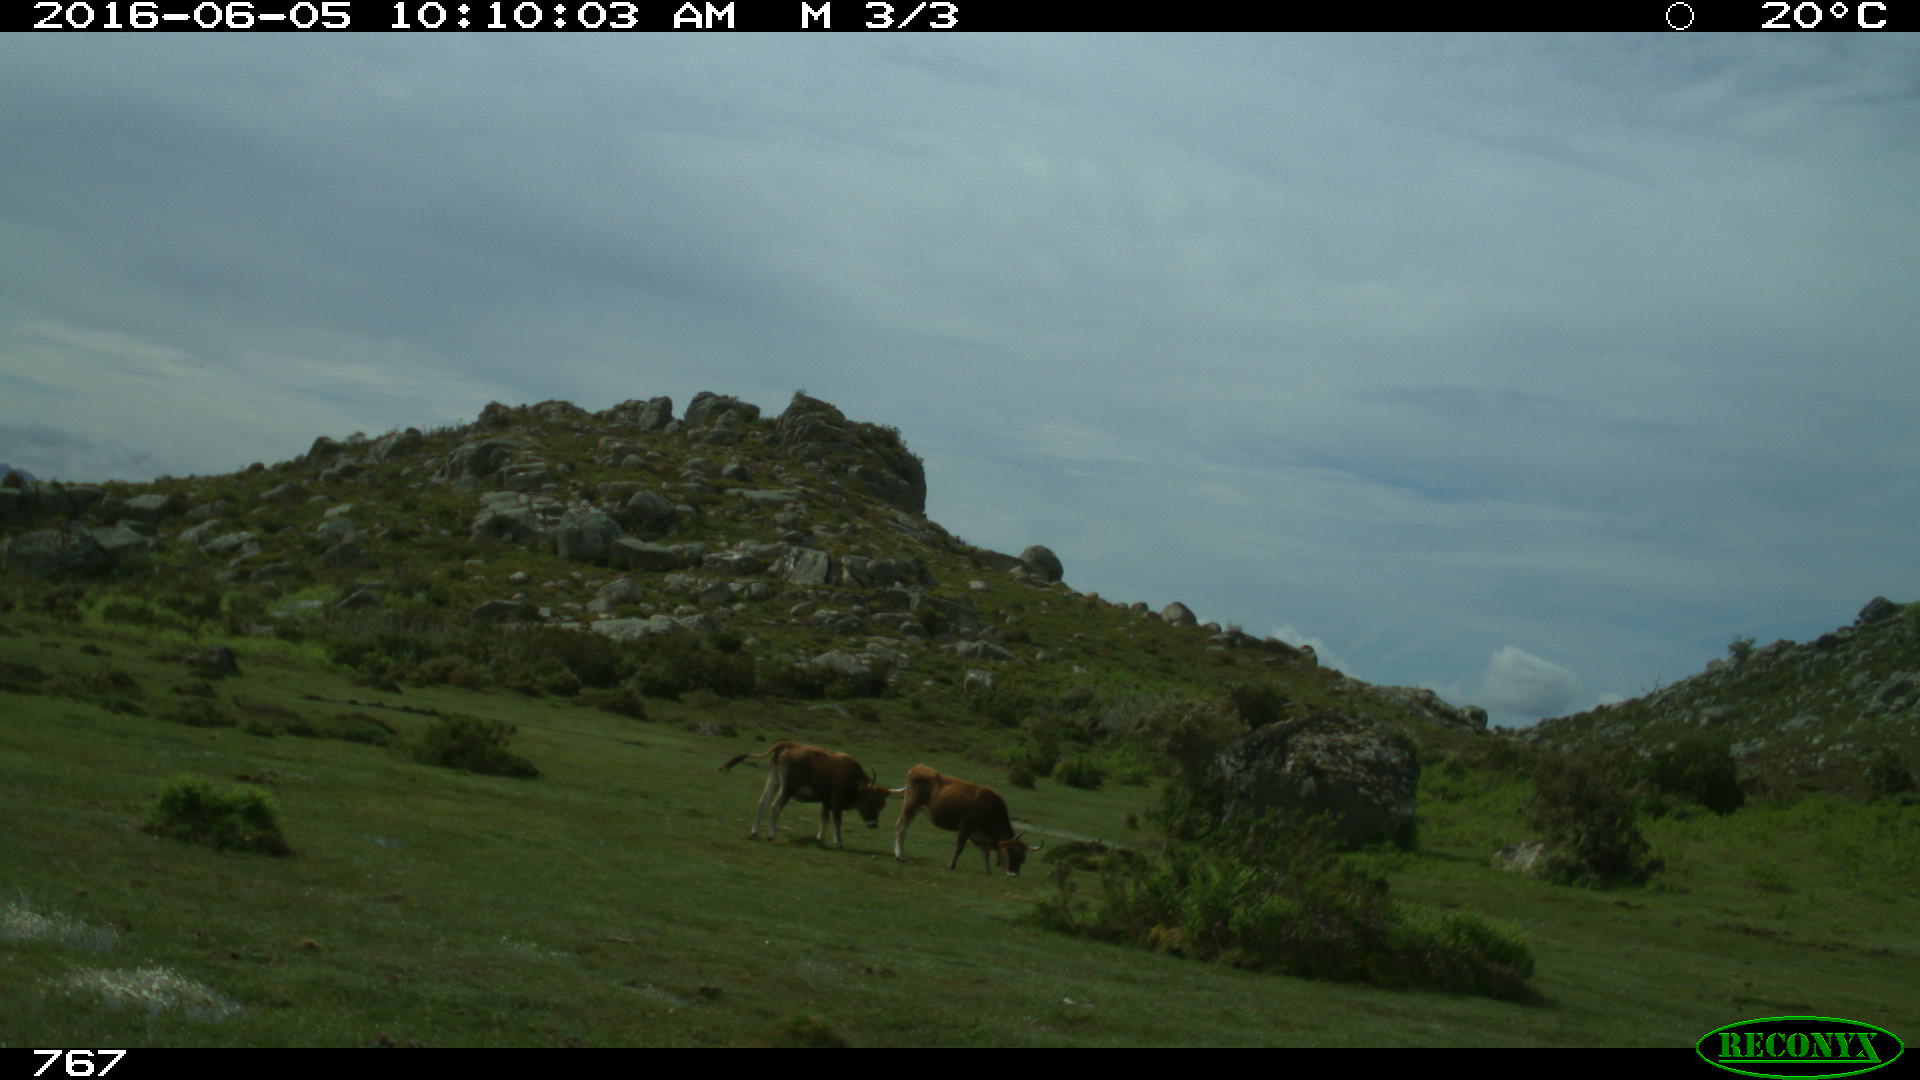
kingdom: Animalia
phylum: Chordata
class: Mammalia
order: Artiodactyla
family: Bovidae
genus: Bos
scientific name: Bos taurus
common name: Domesticated cattle
